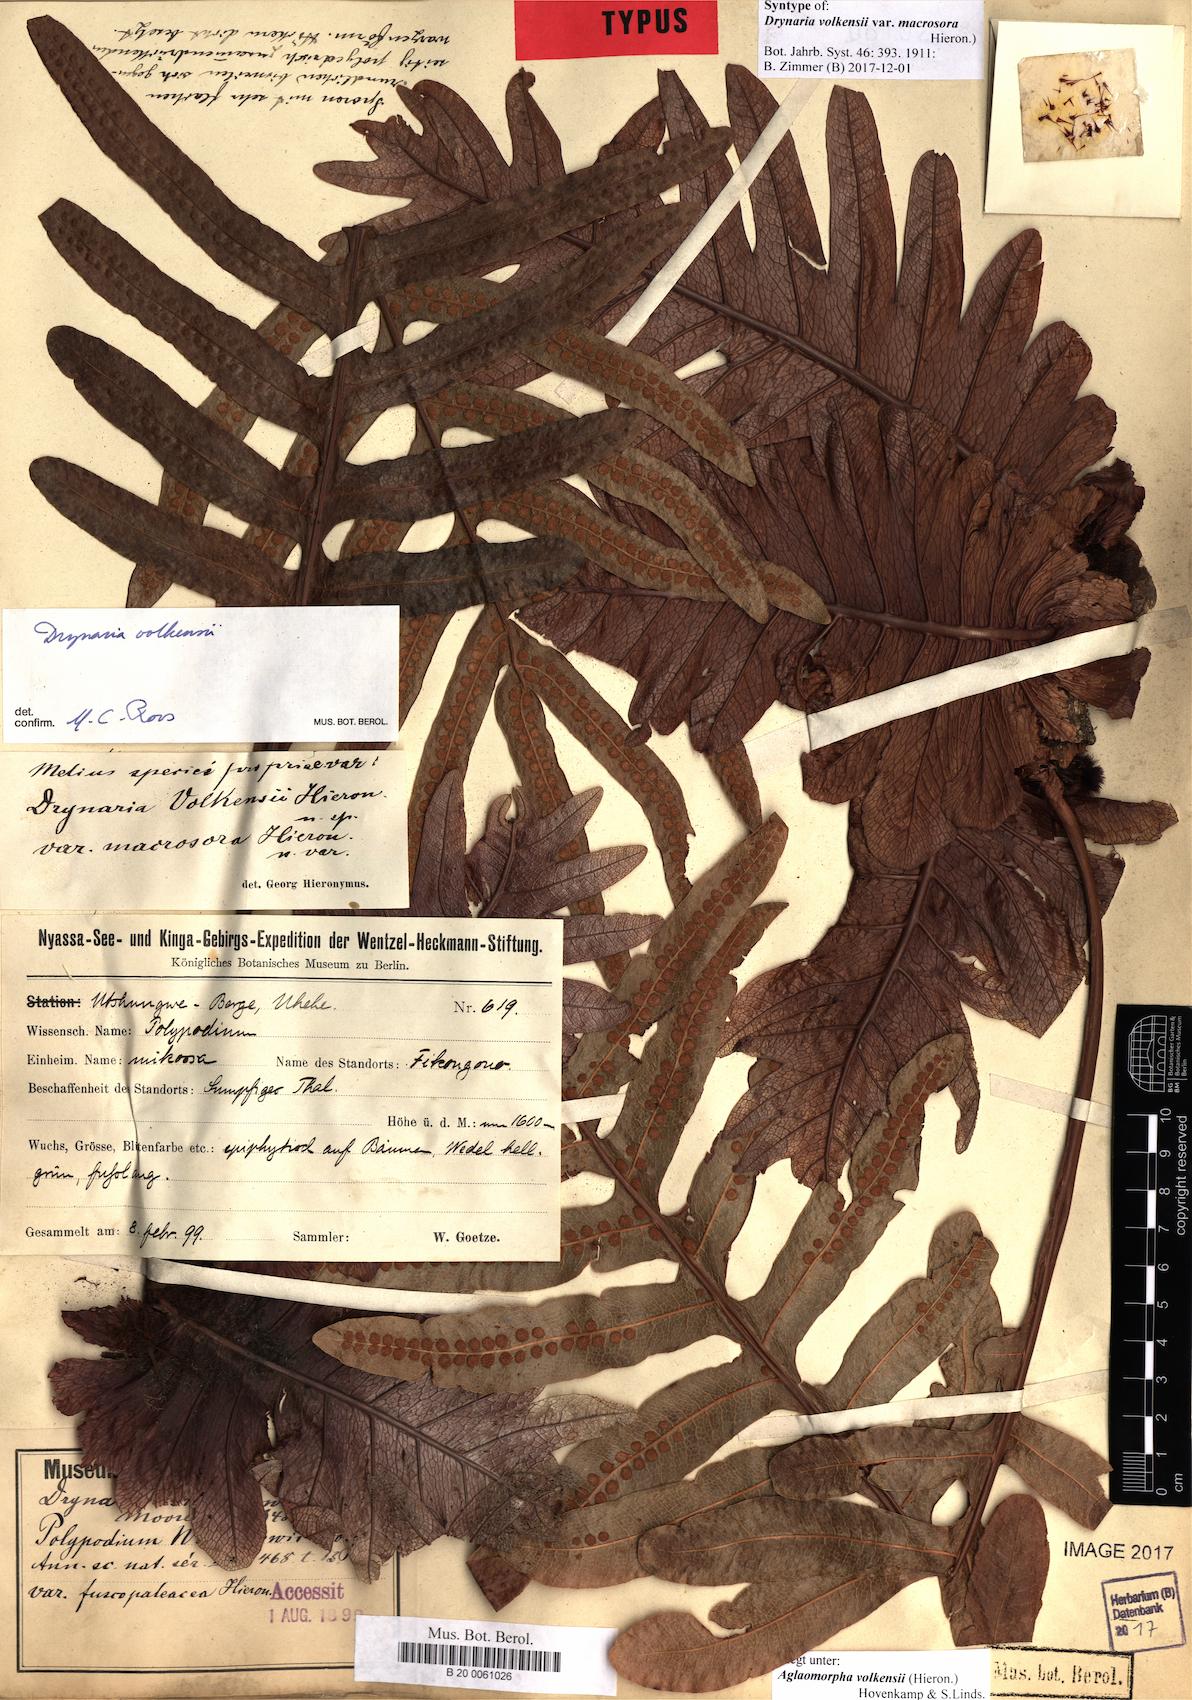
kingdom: Plantae
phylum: Tracheophyta
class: Polypodiopsida
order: Polypodiales
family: Polypodiaceae
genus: Drynaria
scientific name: Drynaria volkensii
